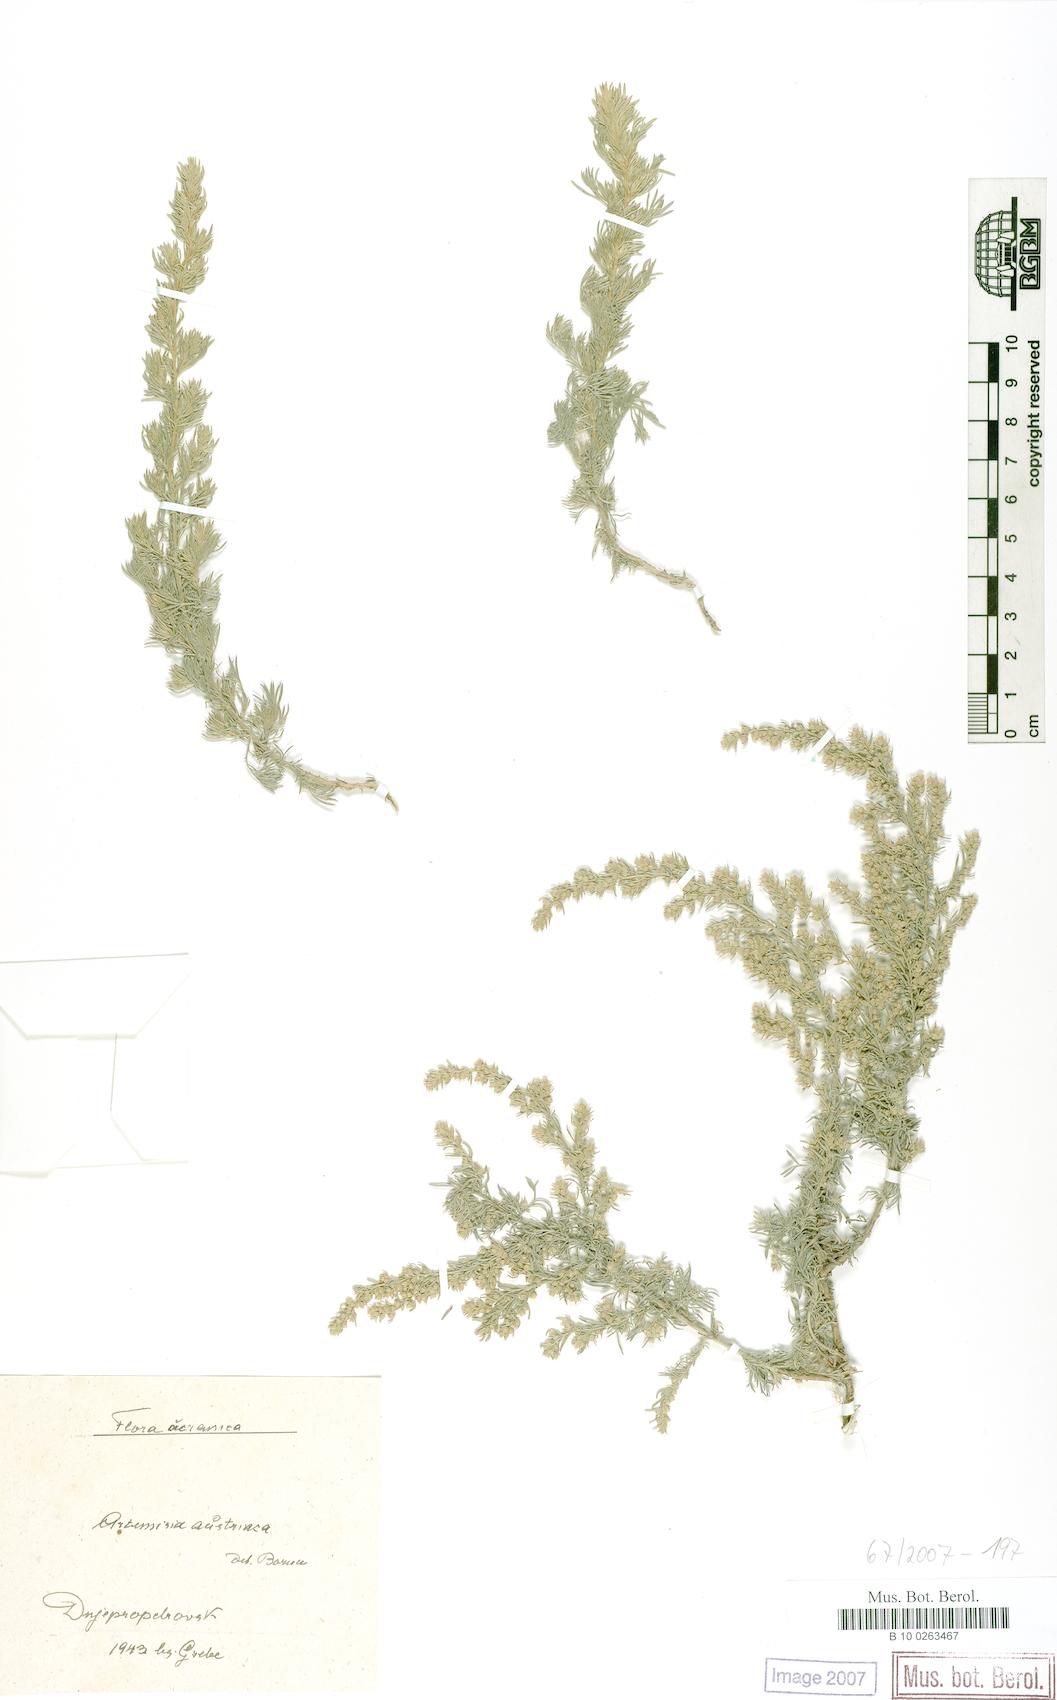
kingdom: Plantae
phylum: Tracheophyta
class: Magnoliopsida
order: Asterales
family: Asteraceae
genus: Artemisia
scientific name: Artemisia austriaca
